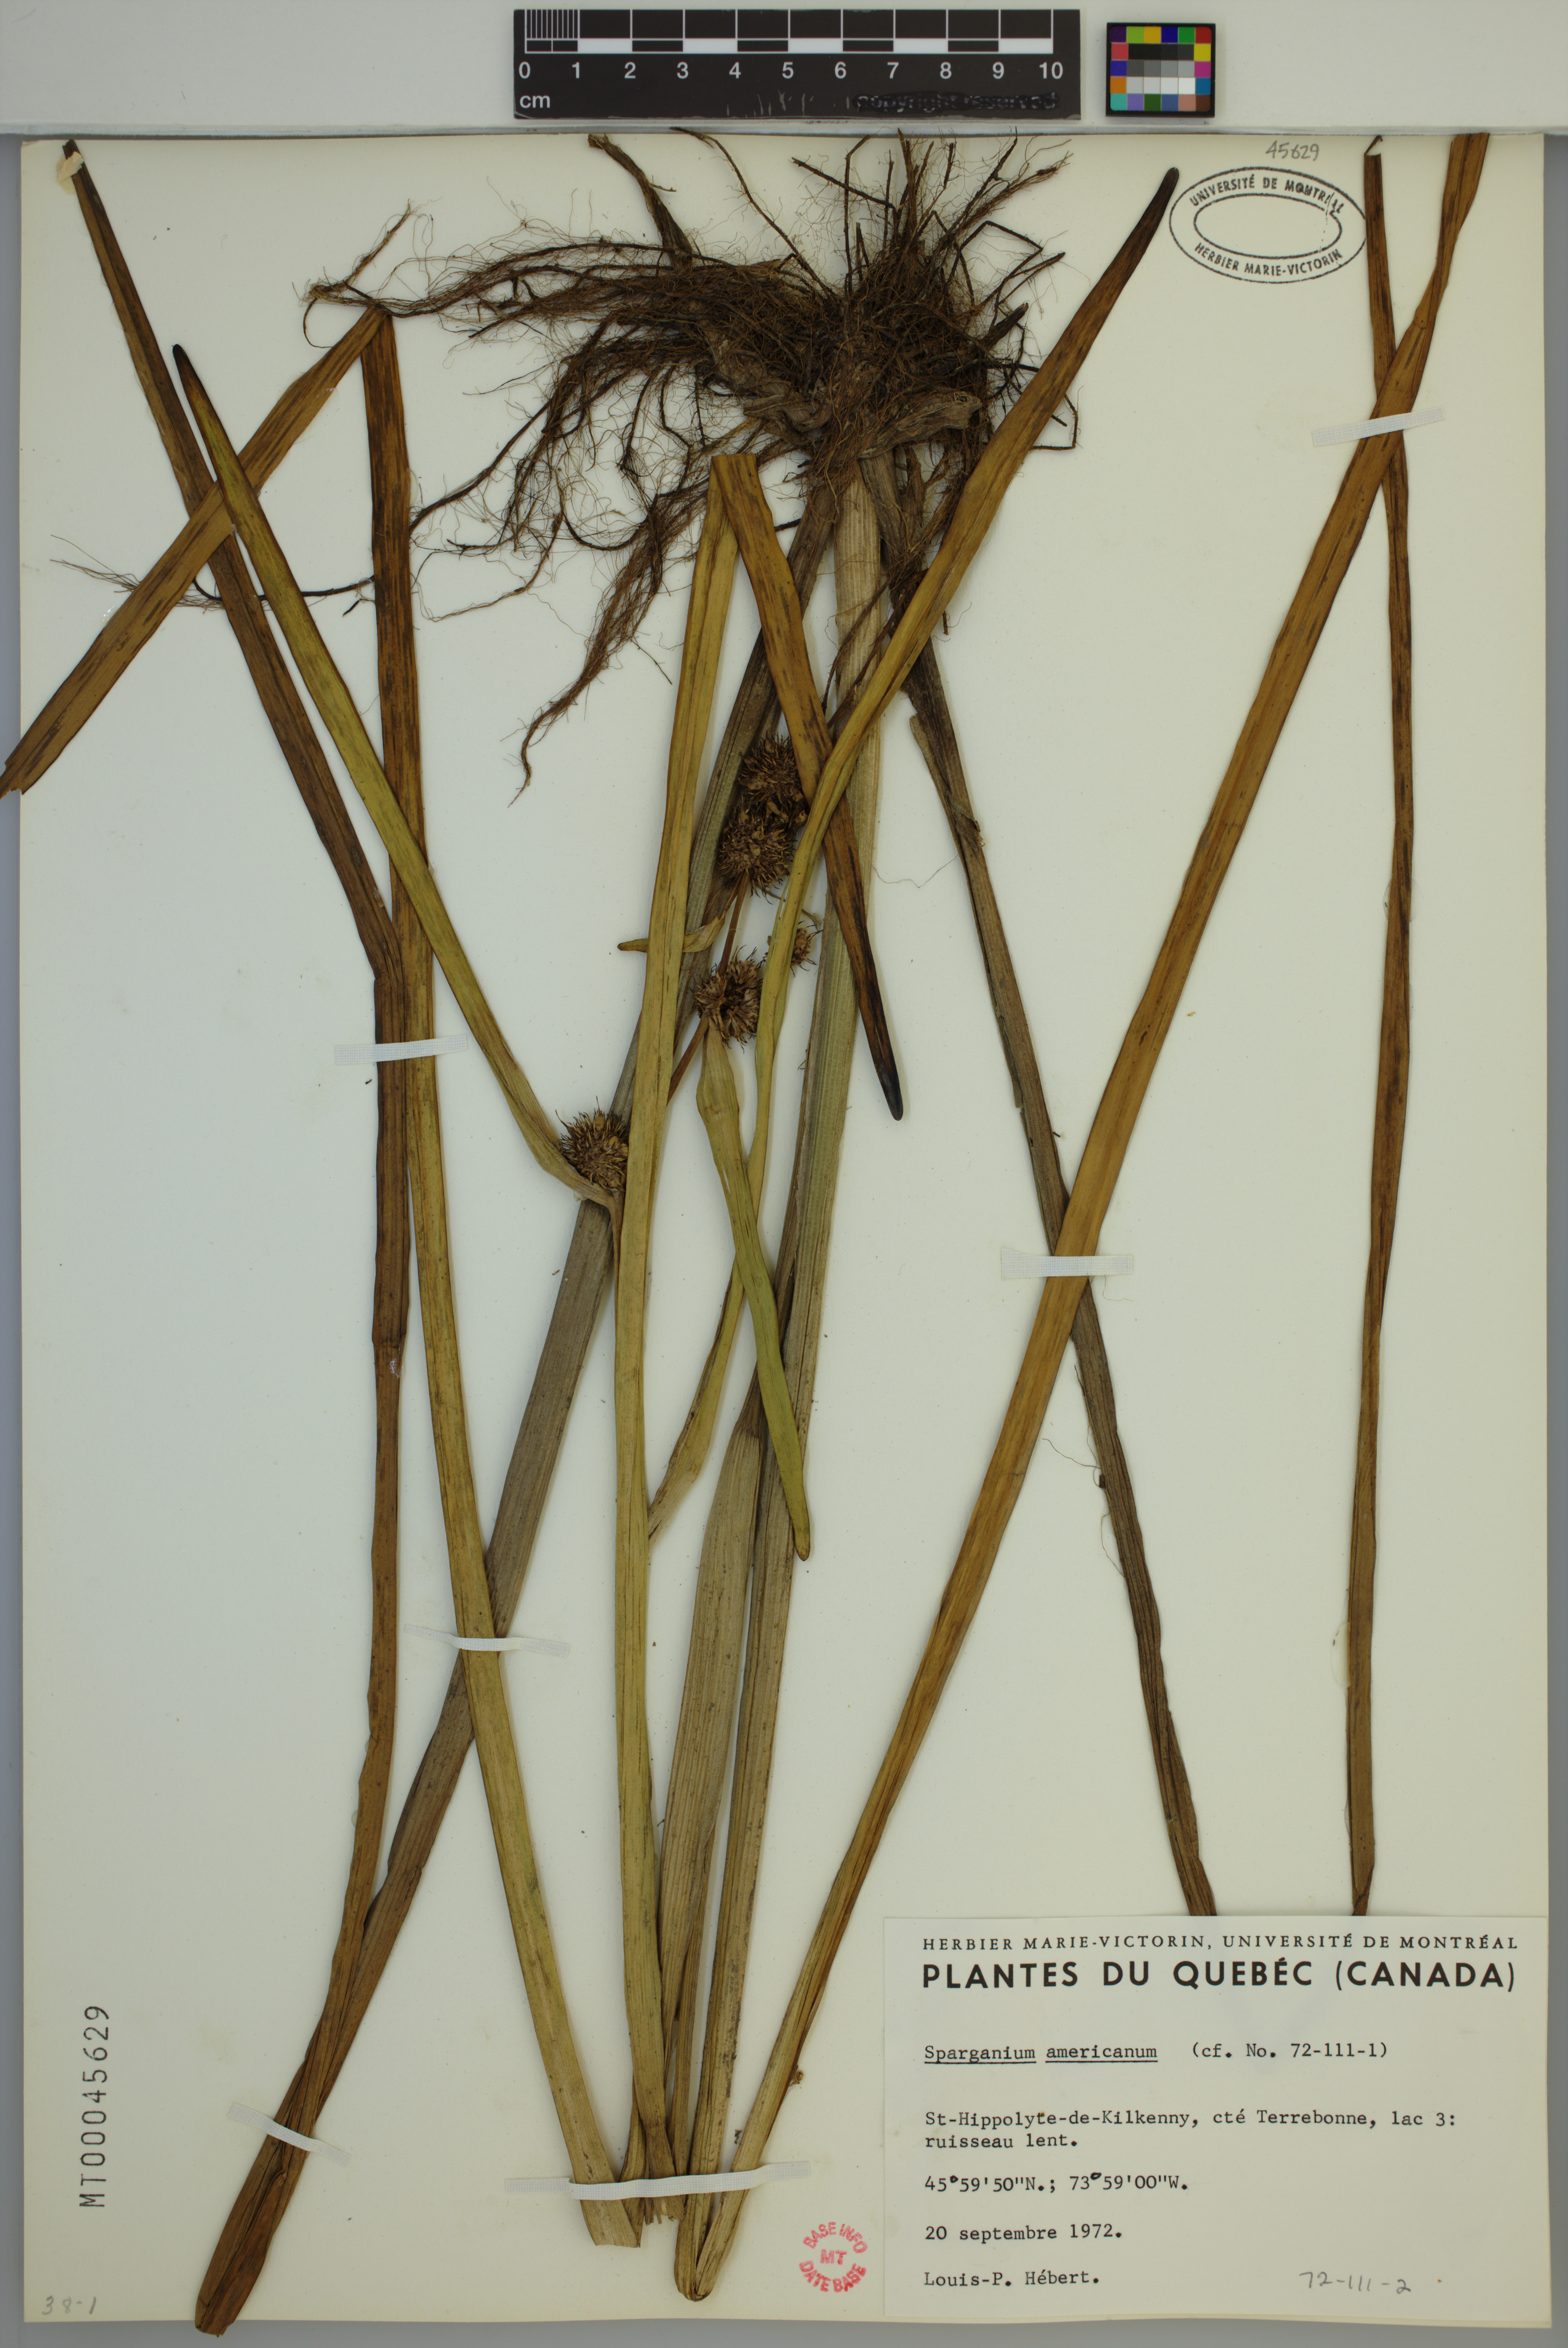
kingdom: Plantae
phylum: Tracheophyta
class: Liliopsida
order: Poales
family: Typhaceae
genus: Sparganium
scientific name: Sparganium americanum
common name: American burreed
